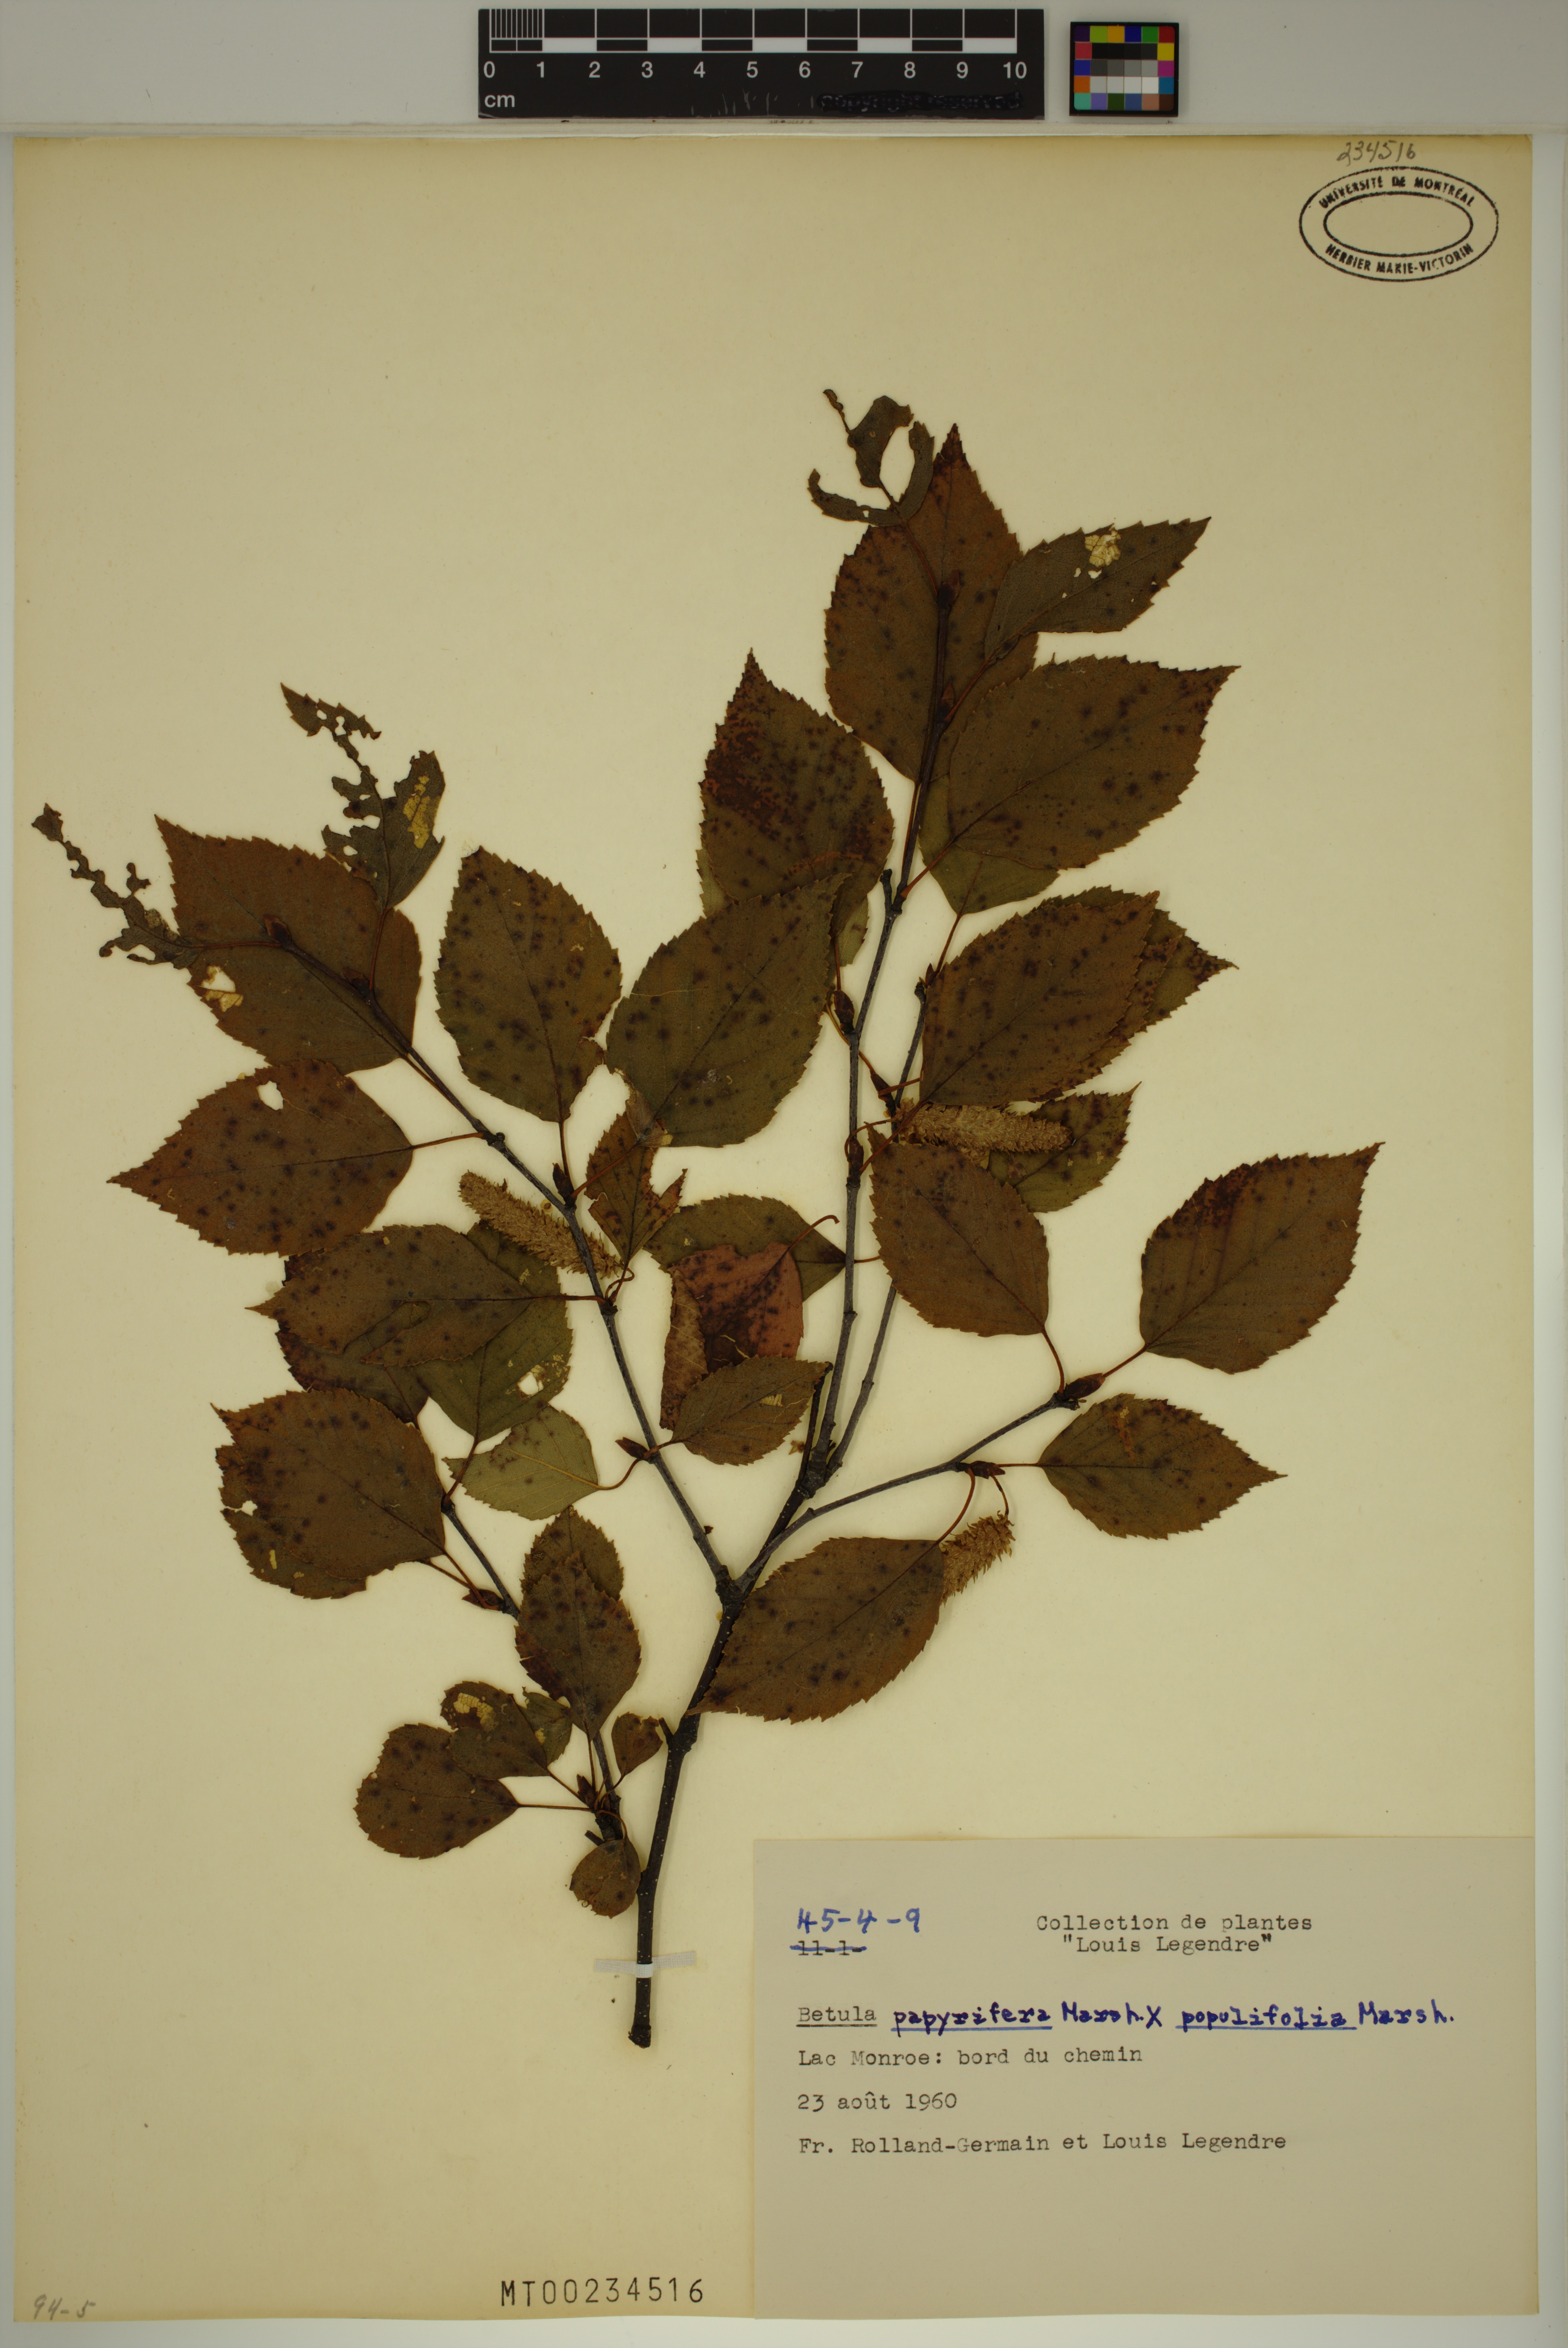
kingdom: Plantae
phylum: Tracheophyta
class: Magnoliopsida
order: Fagales
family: Betulaceae
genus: Betula
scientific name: Betula papyrifera
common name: Paper birch
